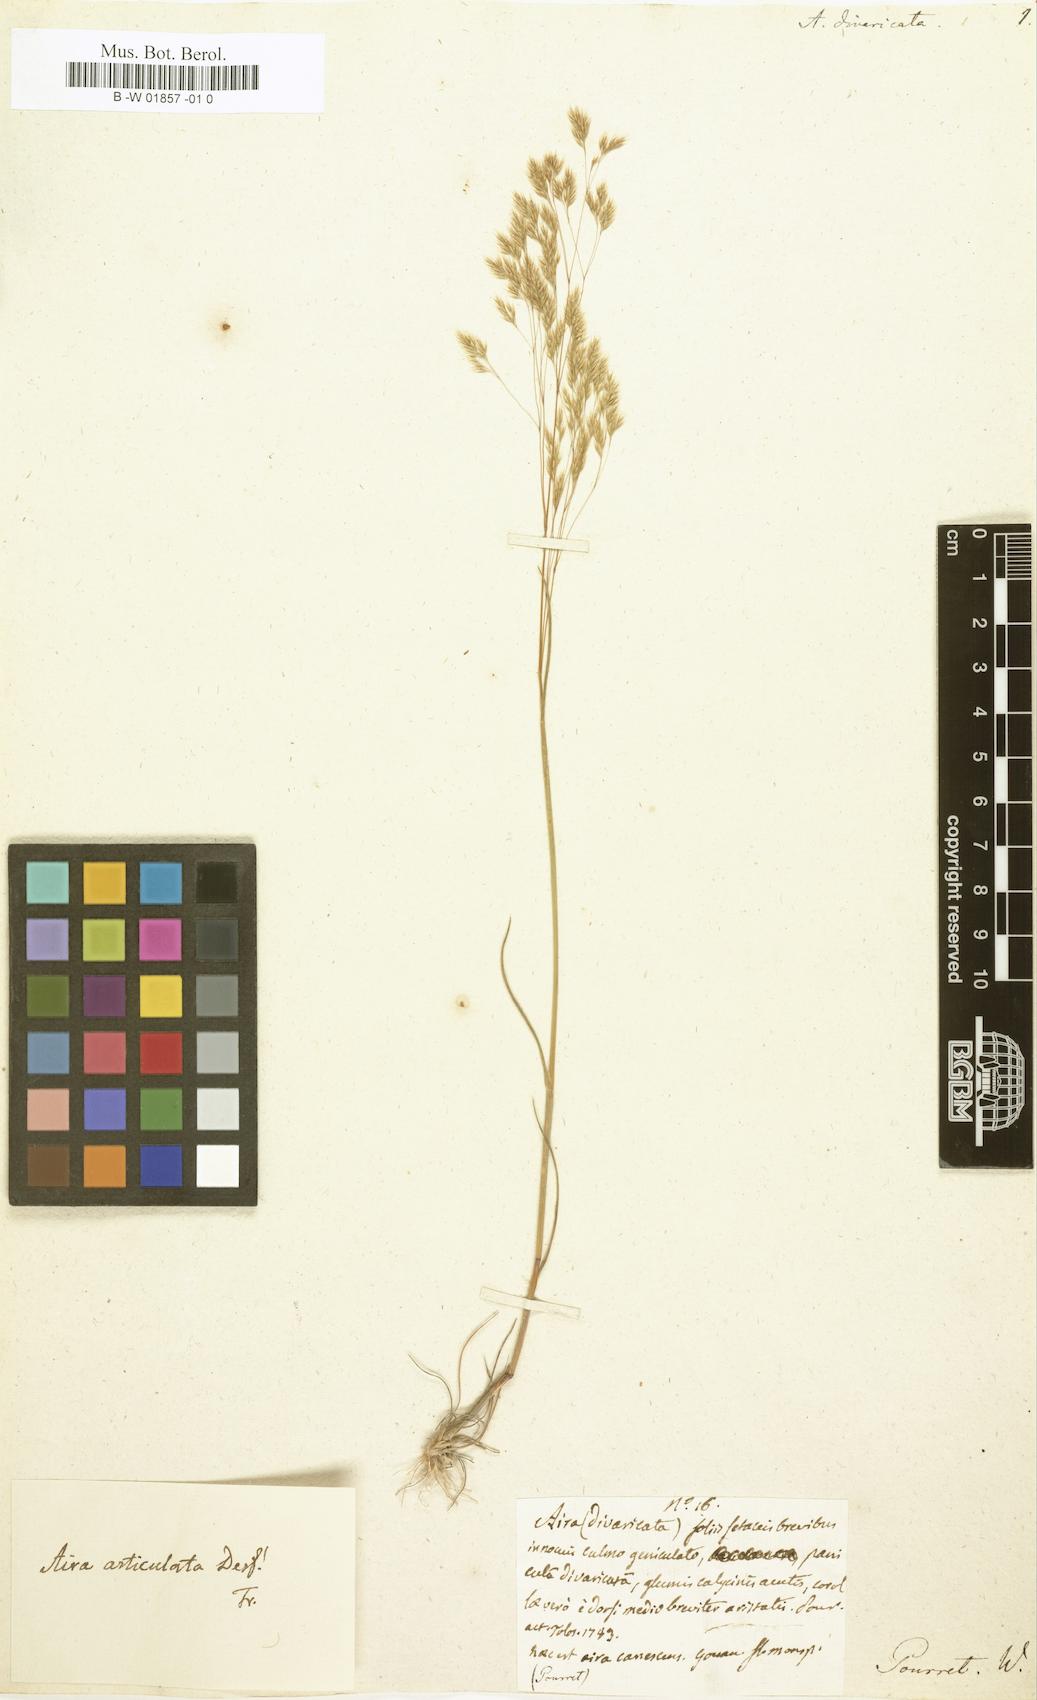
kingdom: Plantae
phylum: Tracheophyta
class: Liliopsida
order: Poales
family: Poaceae
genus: Corynephorus
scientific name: Corynephorus divaricatus
